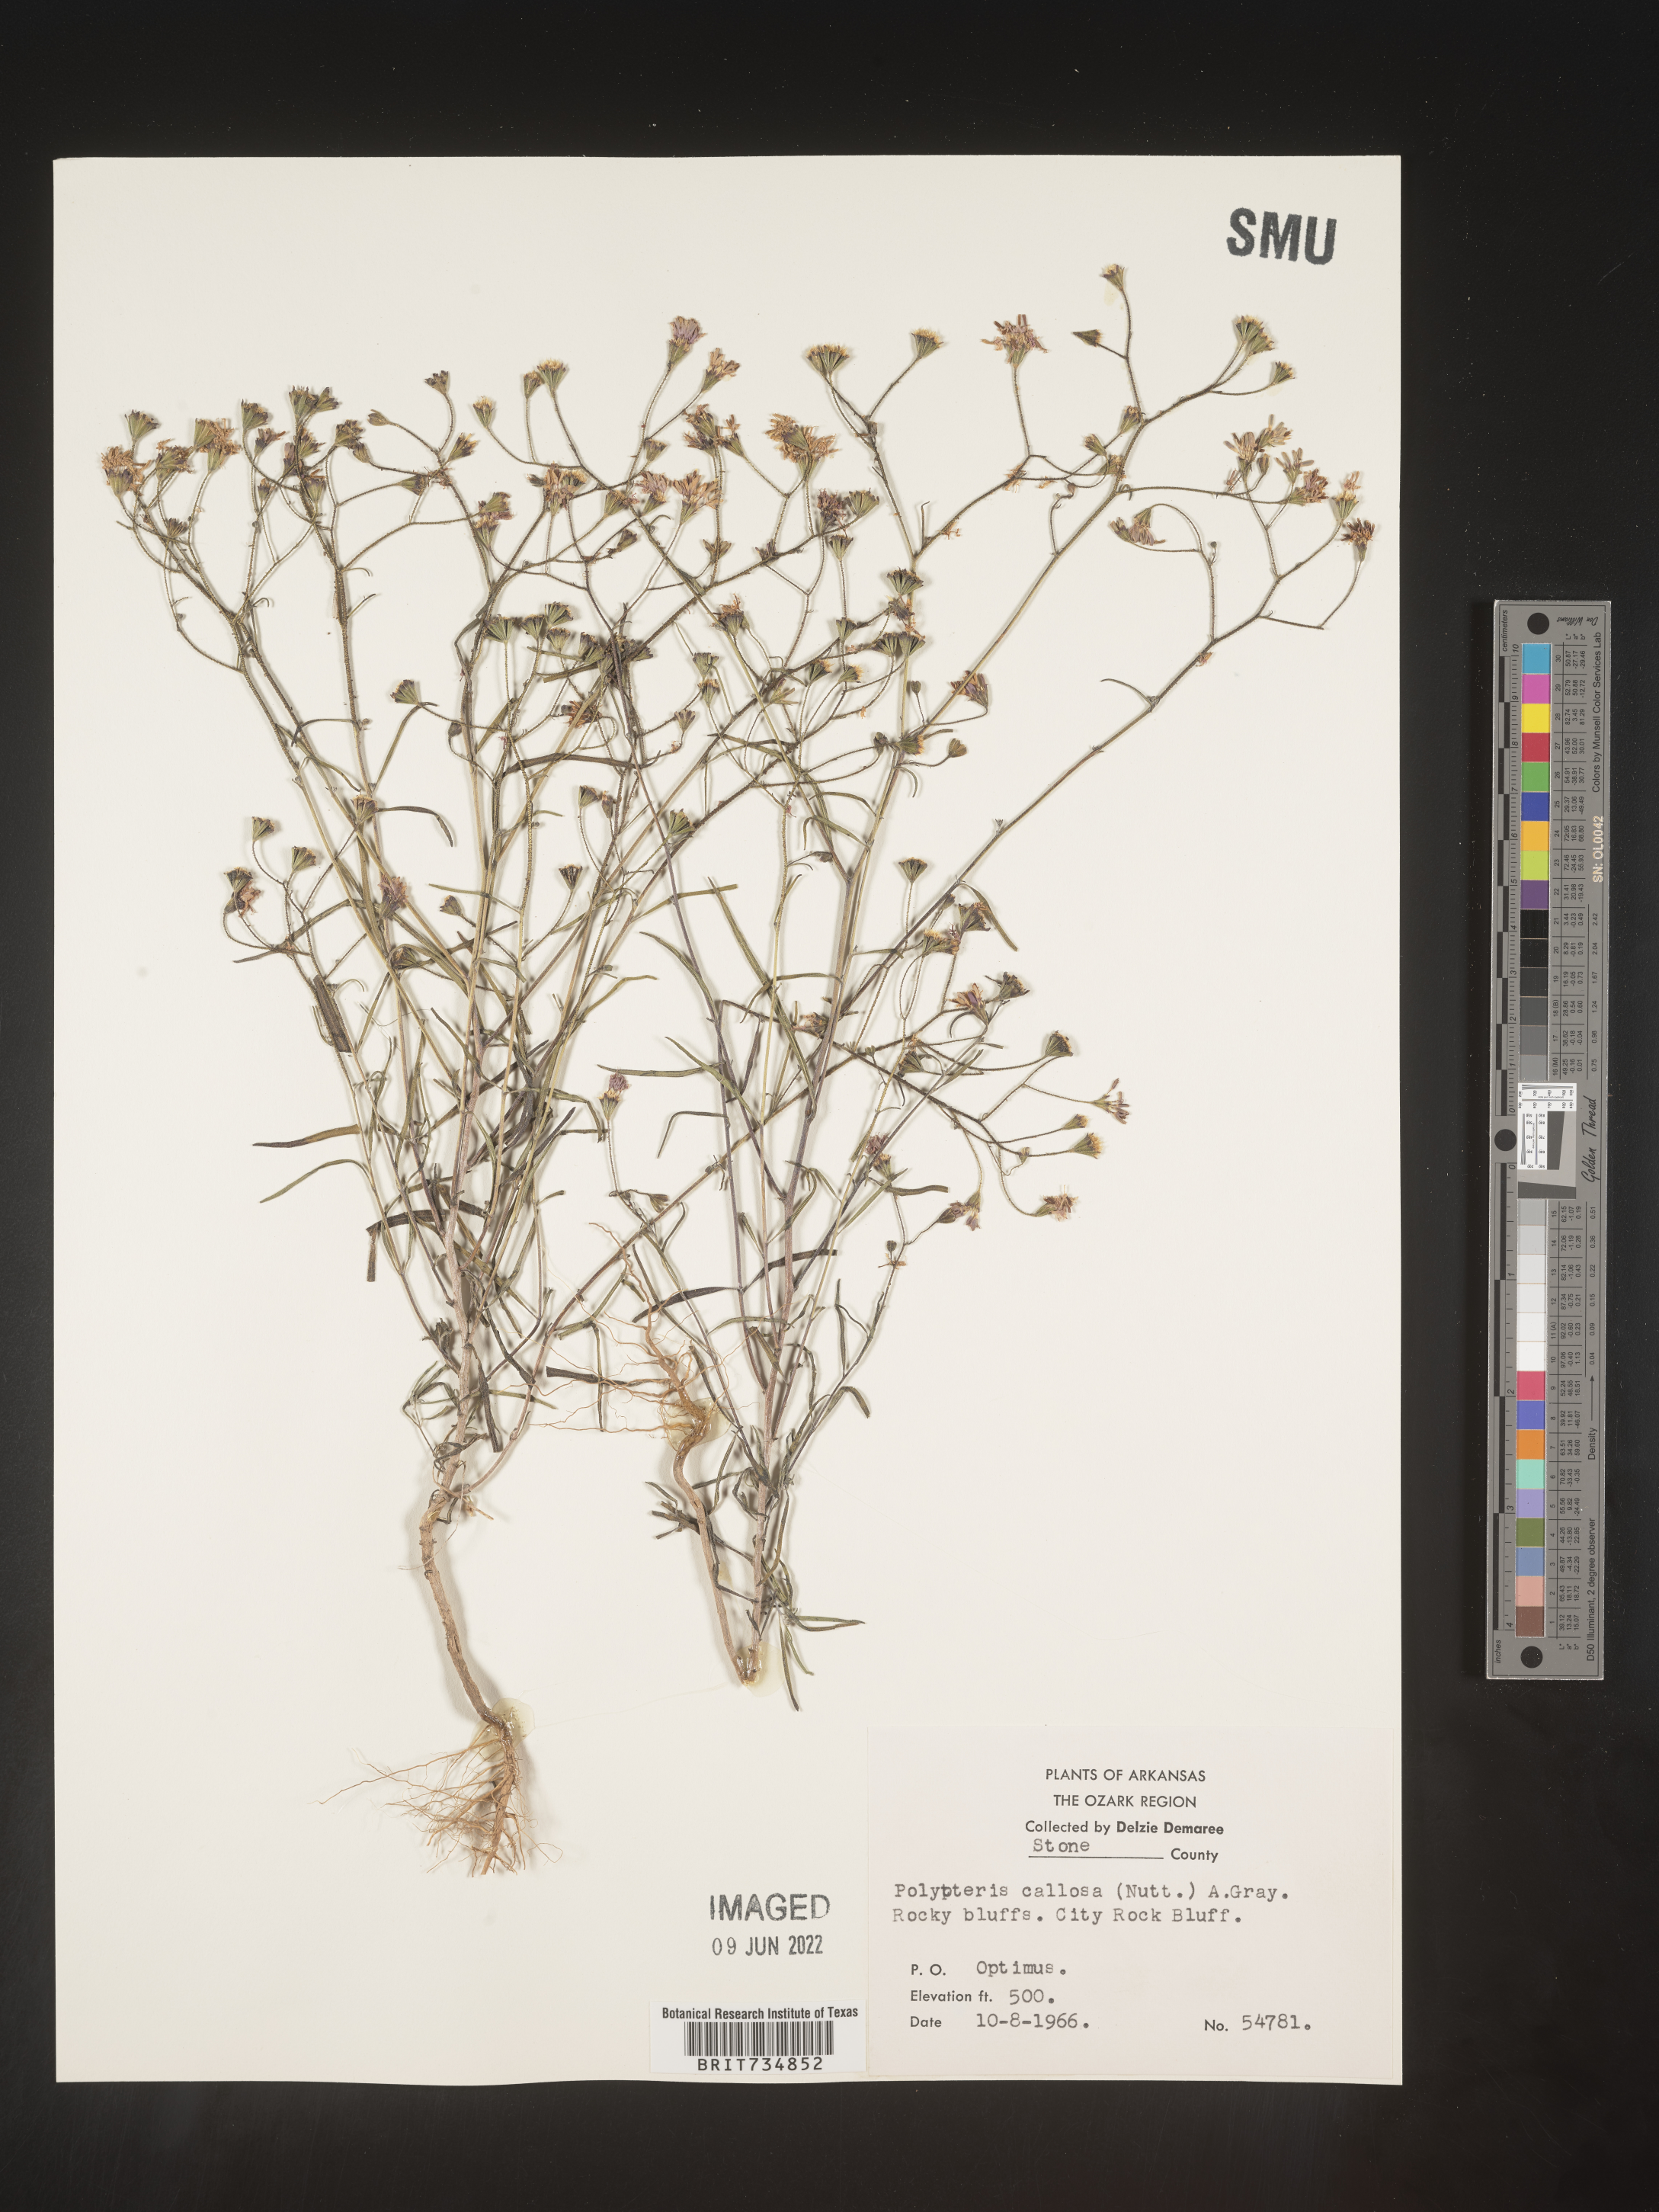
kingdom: Plantae
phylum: Tracheophyta
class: Magnoliopsida
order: Asterales
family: Asteraceae
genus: Palafoxia
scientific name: Palafoxia callosa
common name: Small palafox
